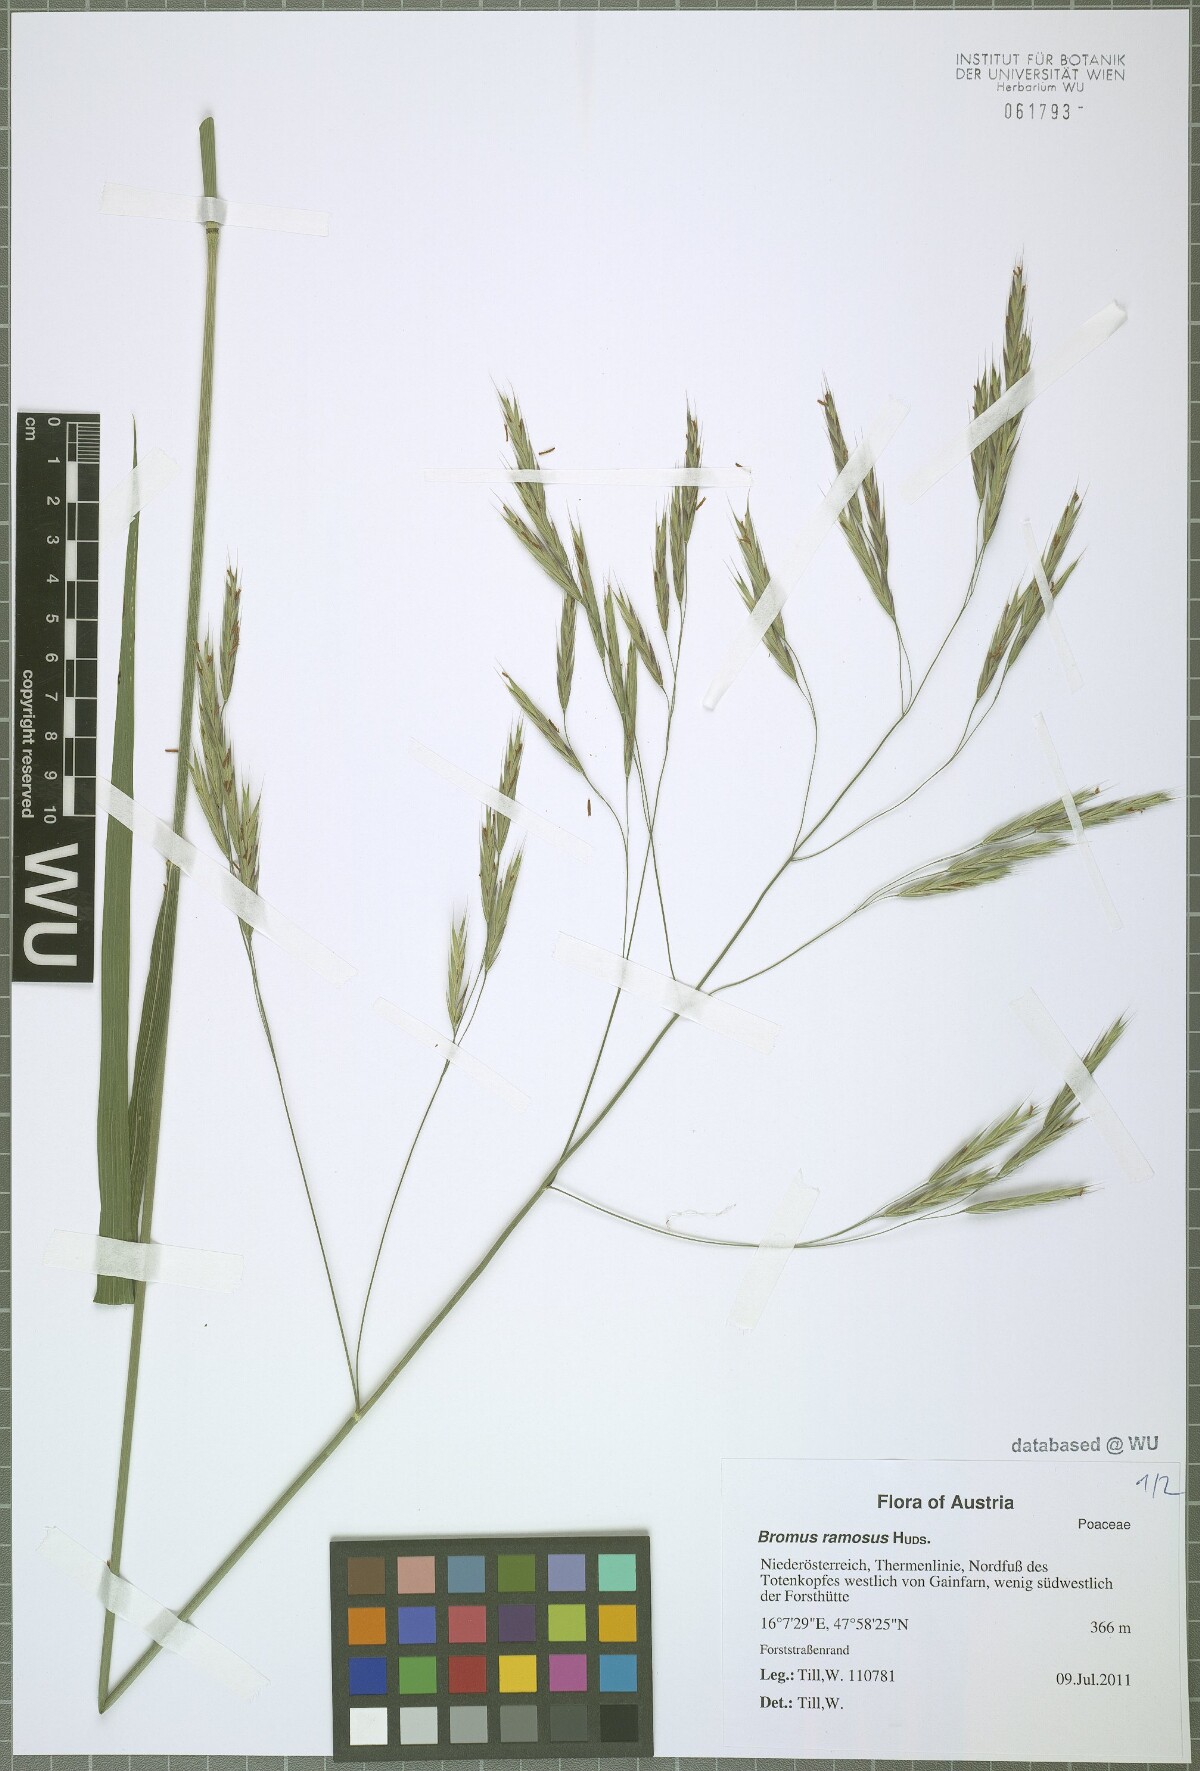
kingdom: Plantae
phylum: Tracheophyta
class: Liliopsida
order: Poales
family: Poaceae
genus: Bromus
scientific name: Bromus ramosus
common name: Hairy brome
